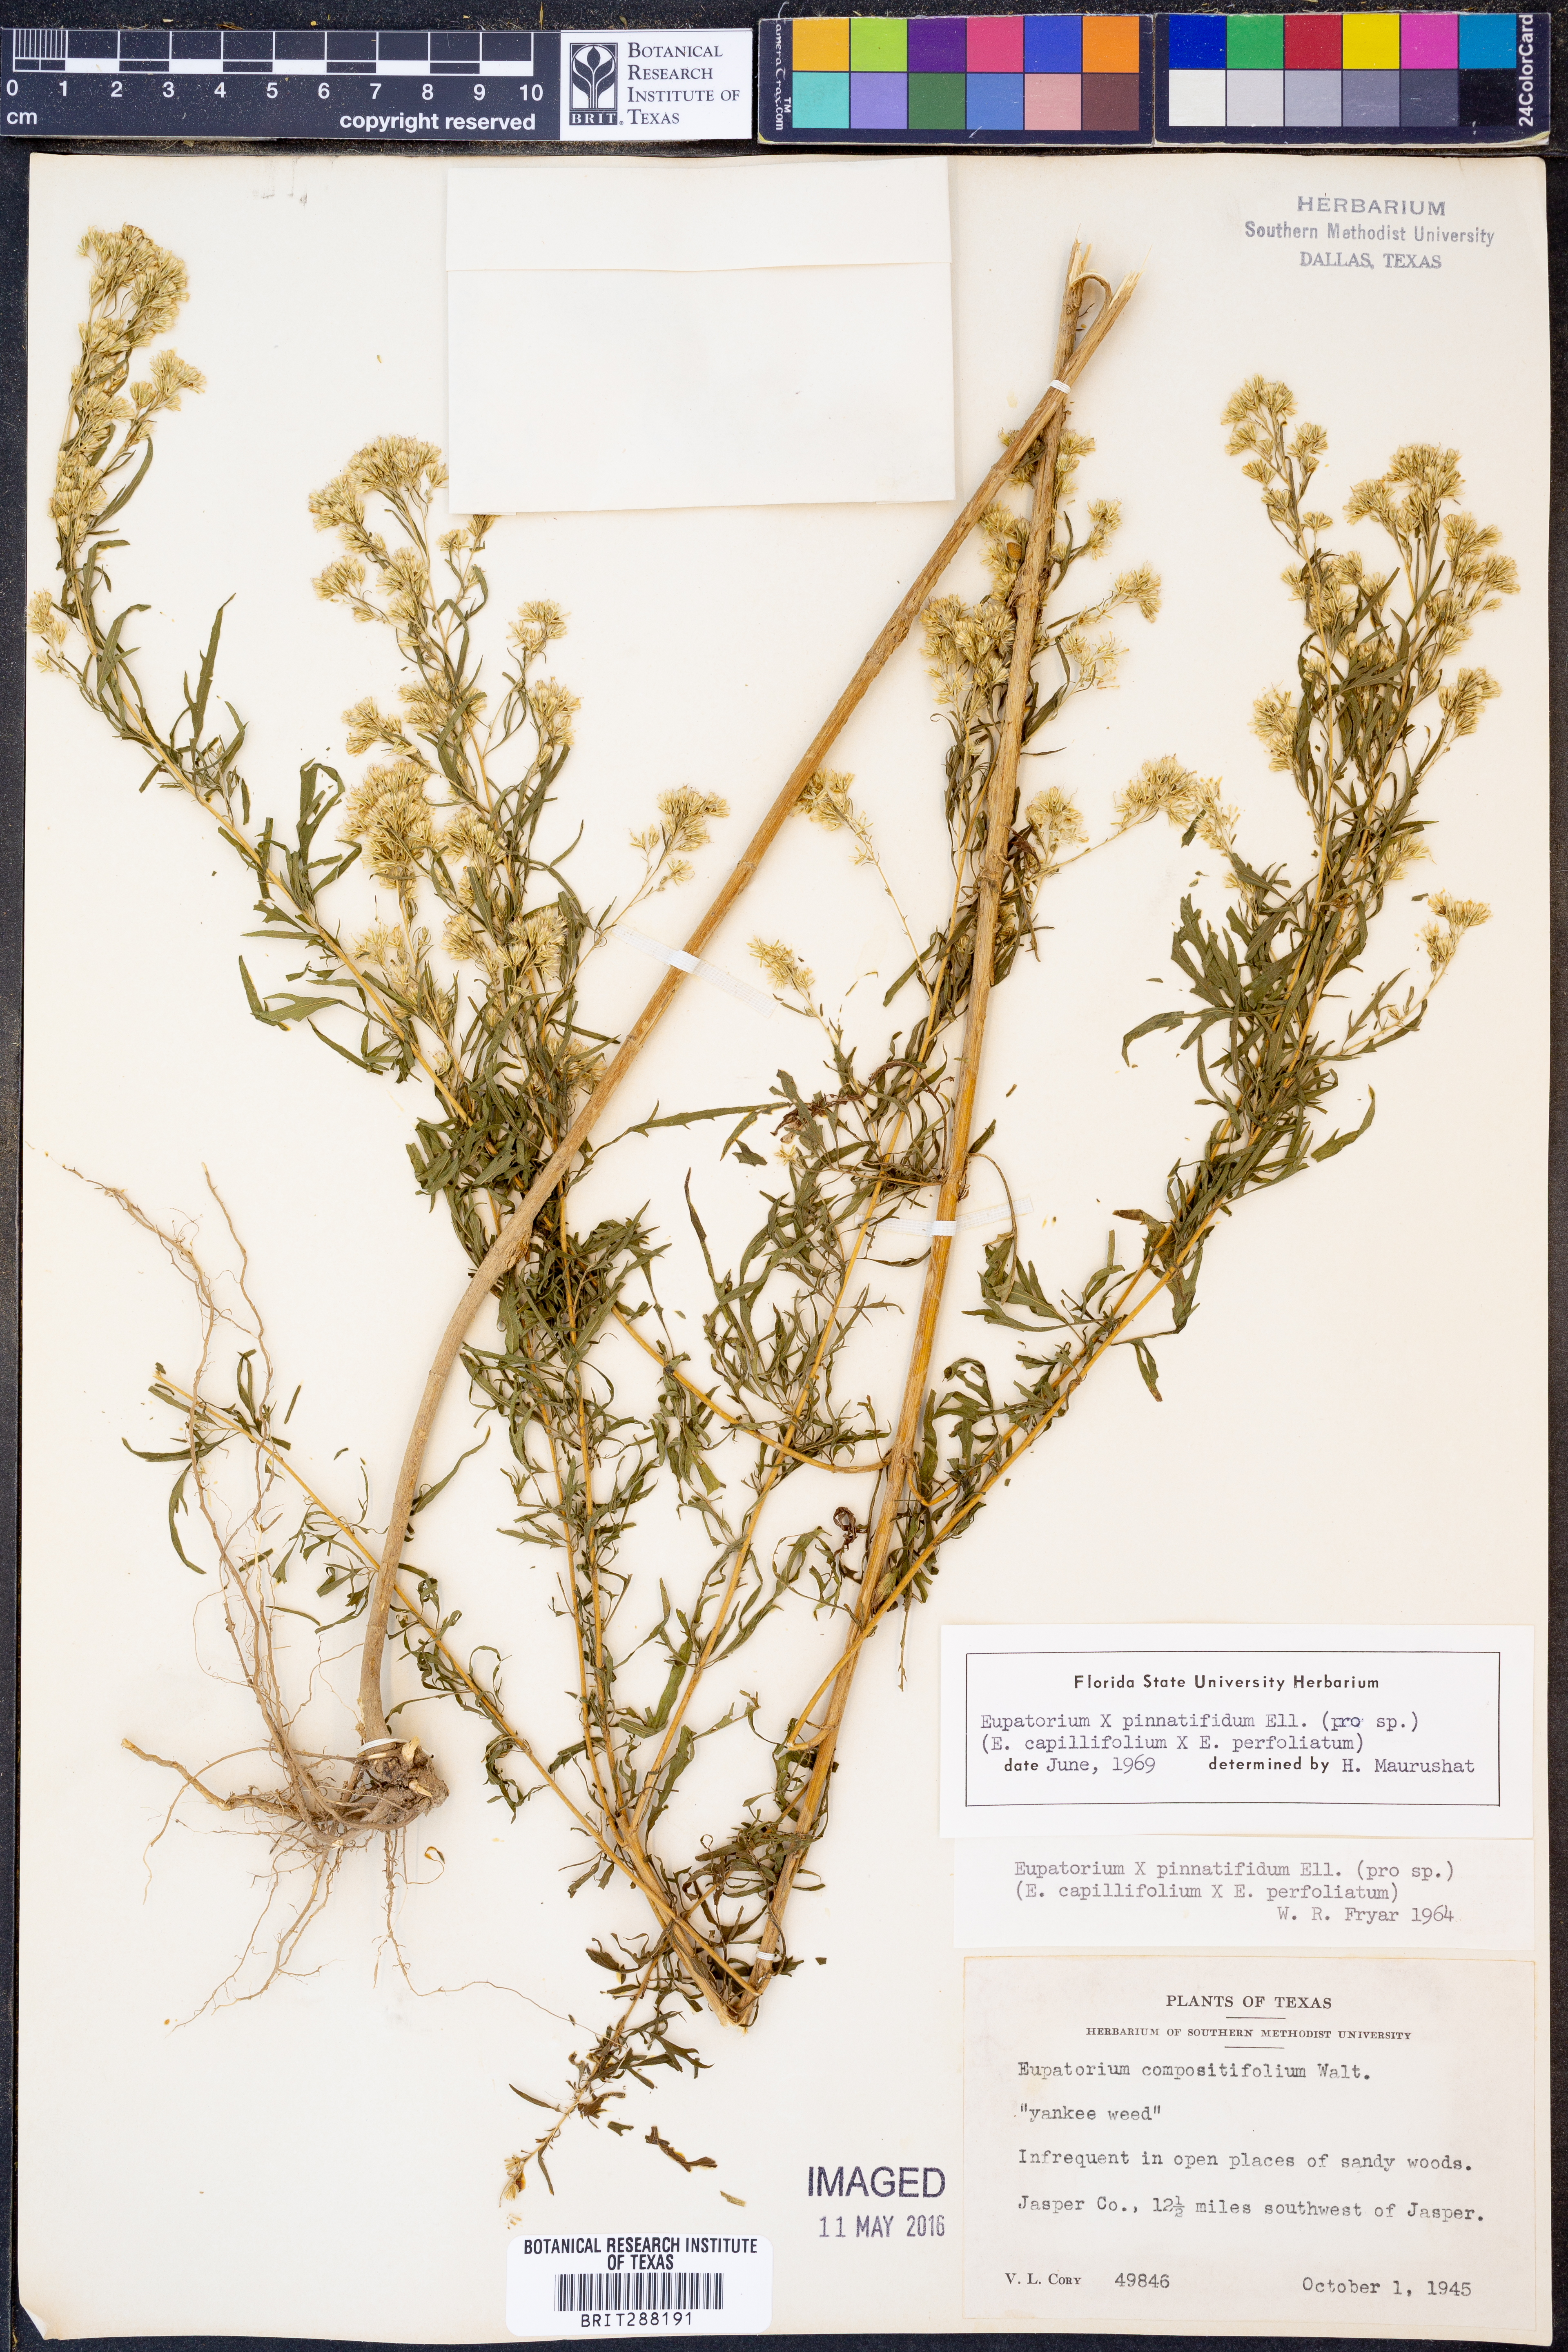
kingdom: Plantae
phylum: Tracheophyta
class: Magnoliopsida
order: Asterales
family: Asteraceae
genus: Eupatorium
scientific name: Eupatorium
